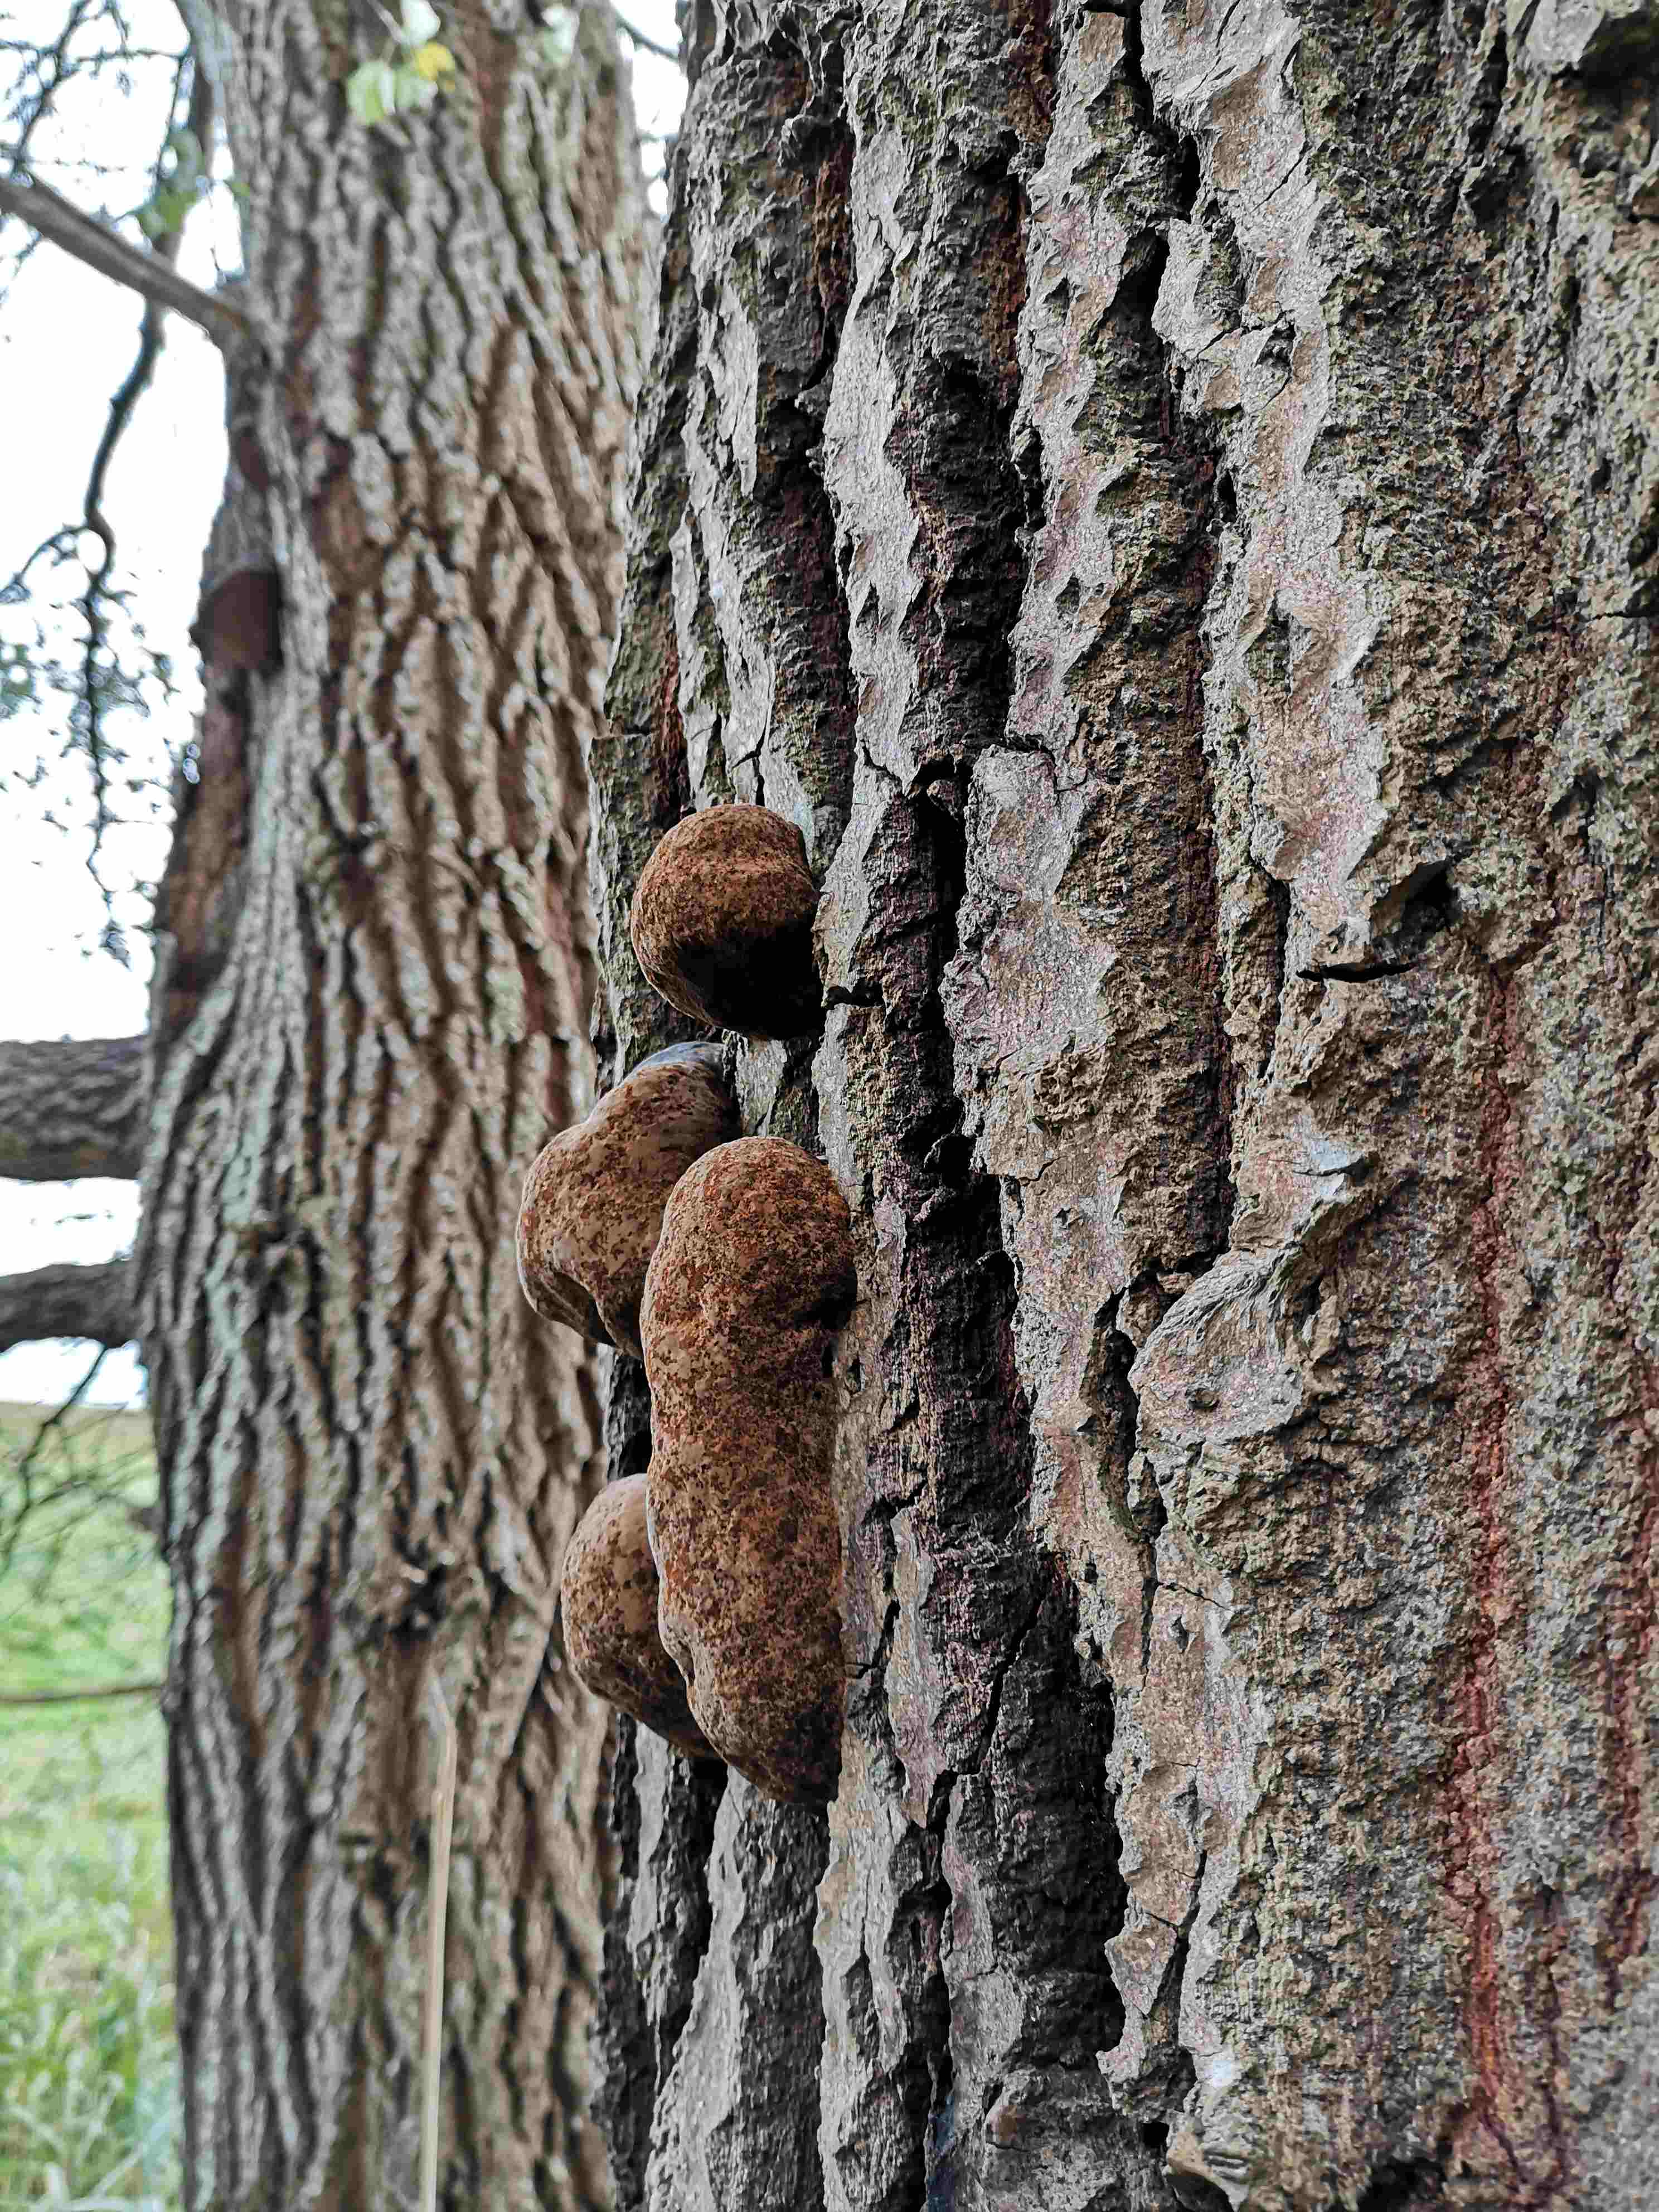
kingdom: Fungi
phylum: Basidiomycota
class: Agaricomycetes
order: Hymenochaetales
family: Hymenochaetaceae
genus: Phellinus
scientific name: Phellinus populicola
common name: poppel-ildporesvamp
